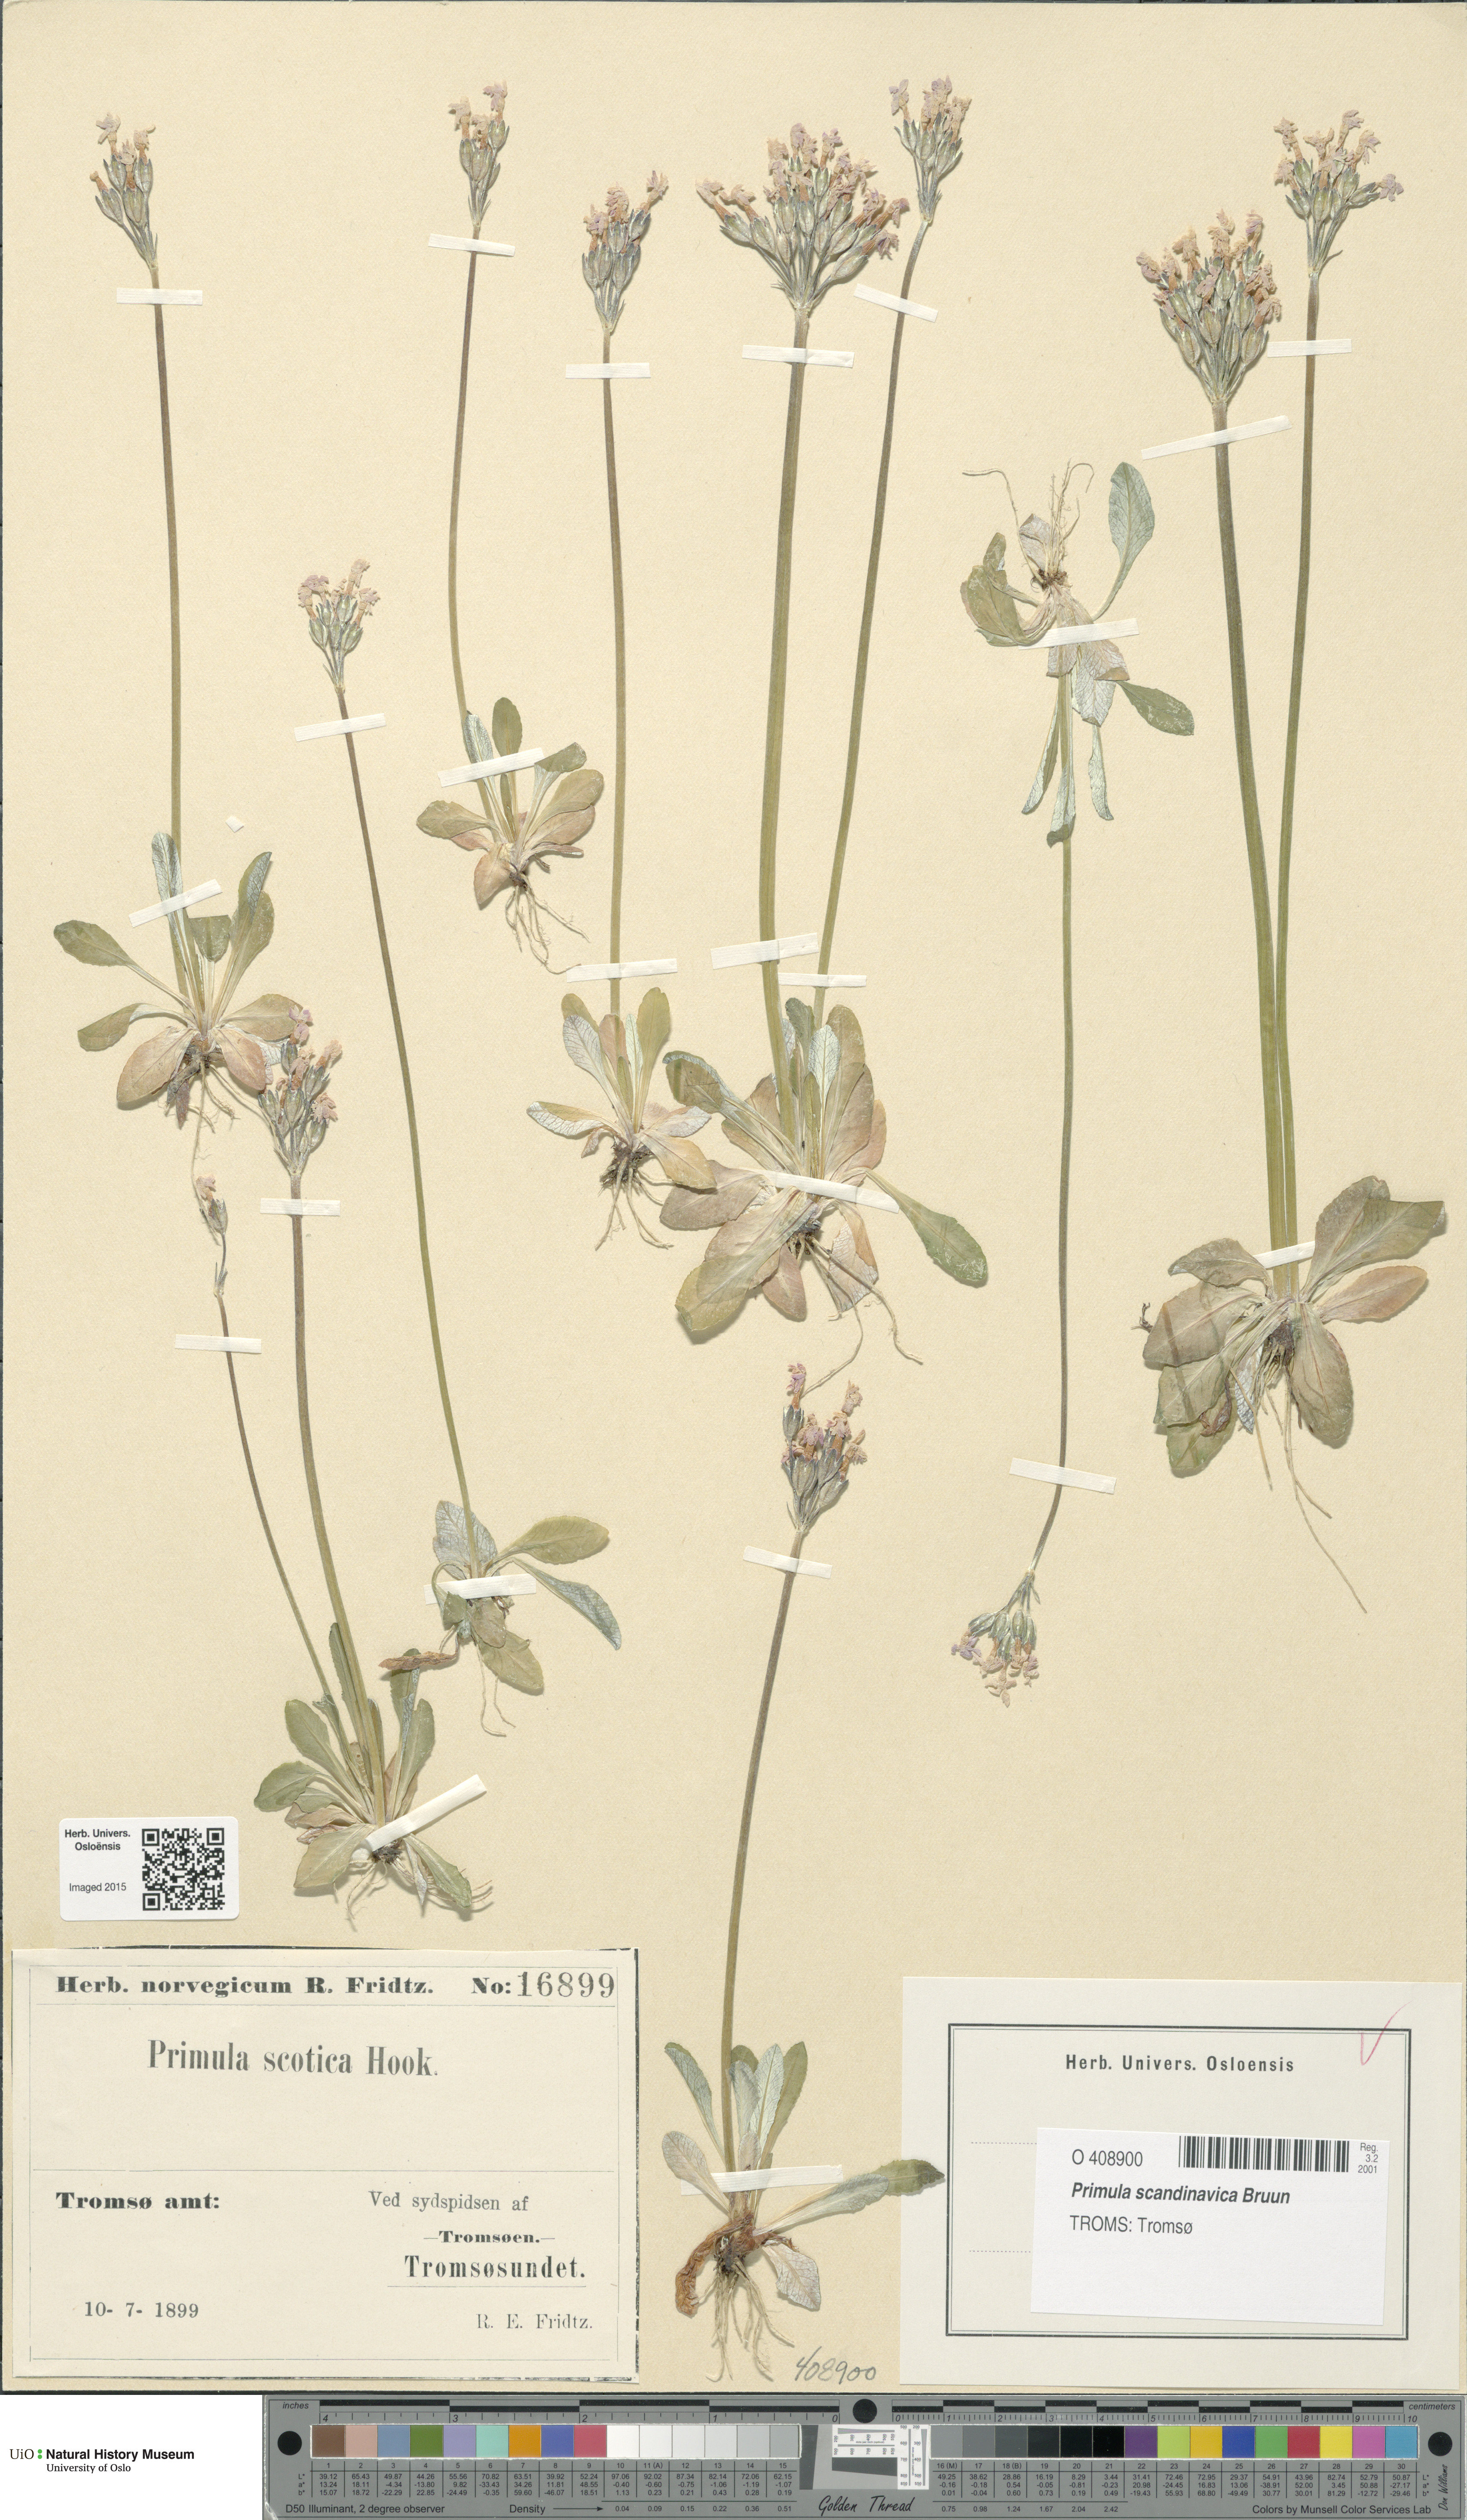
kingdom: Plantae
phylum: Tracheophyta
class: Magnoliopsida
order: Ericales
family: Primulaceae
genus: Primula
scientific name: Primula scandinavica
